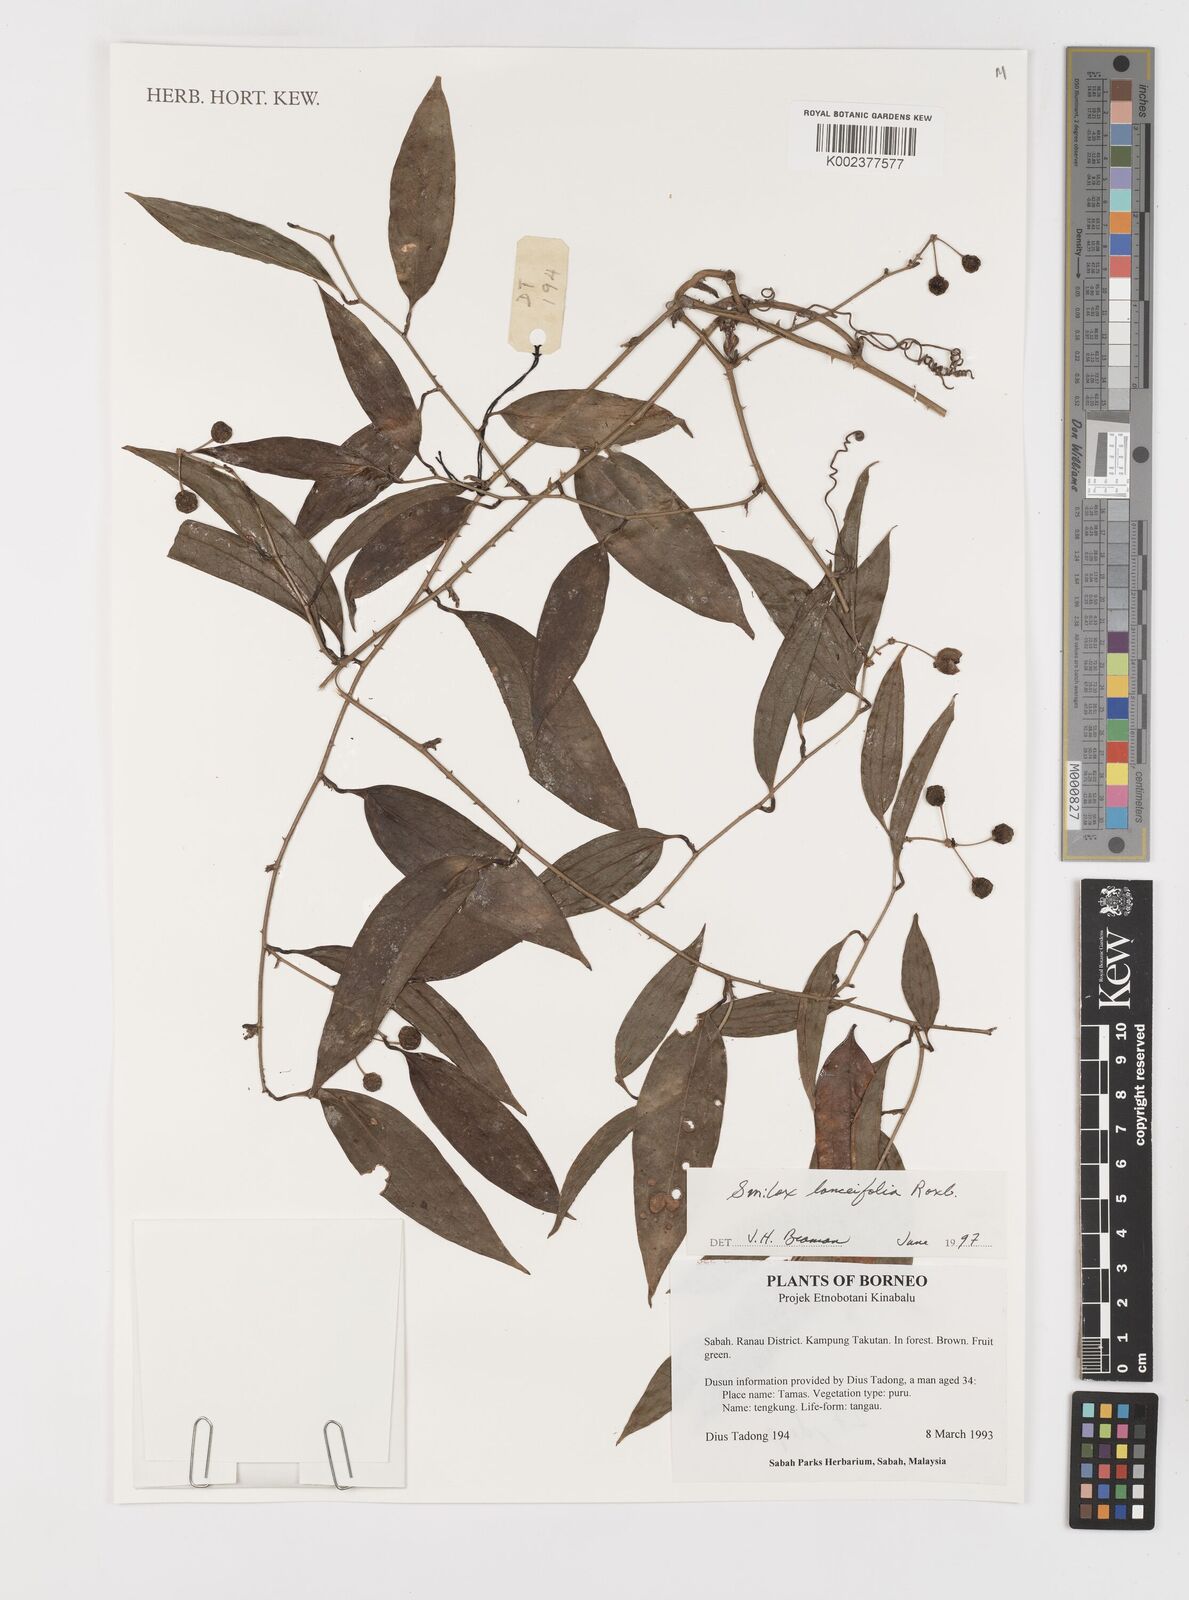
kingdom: Plantae
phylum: Tracheophyta
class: Liliopsida
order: Liliales
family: Smilacaceae
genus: Smilax
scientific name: Smilax lanceifolia
